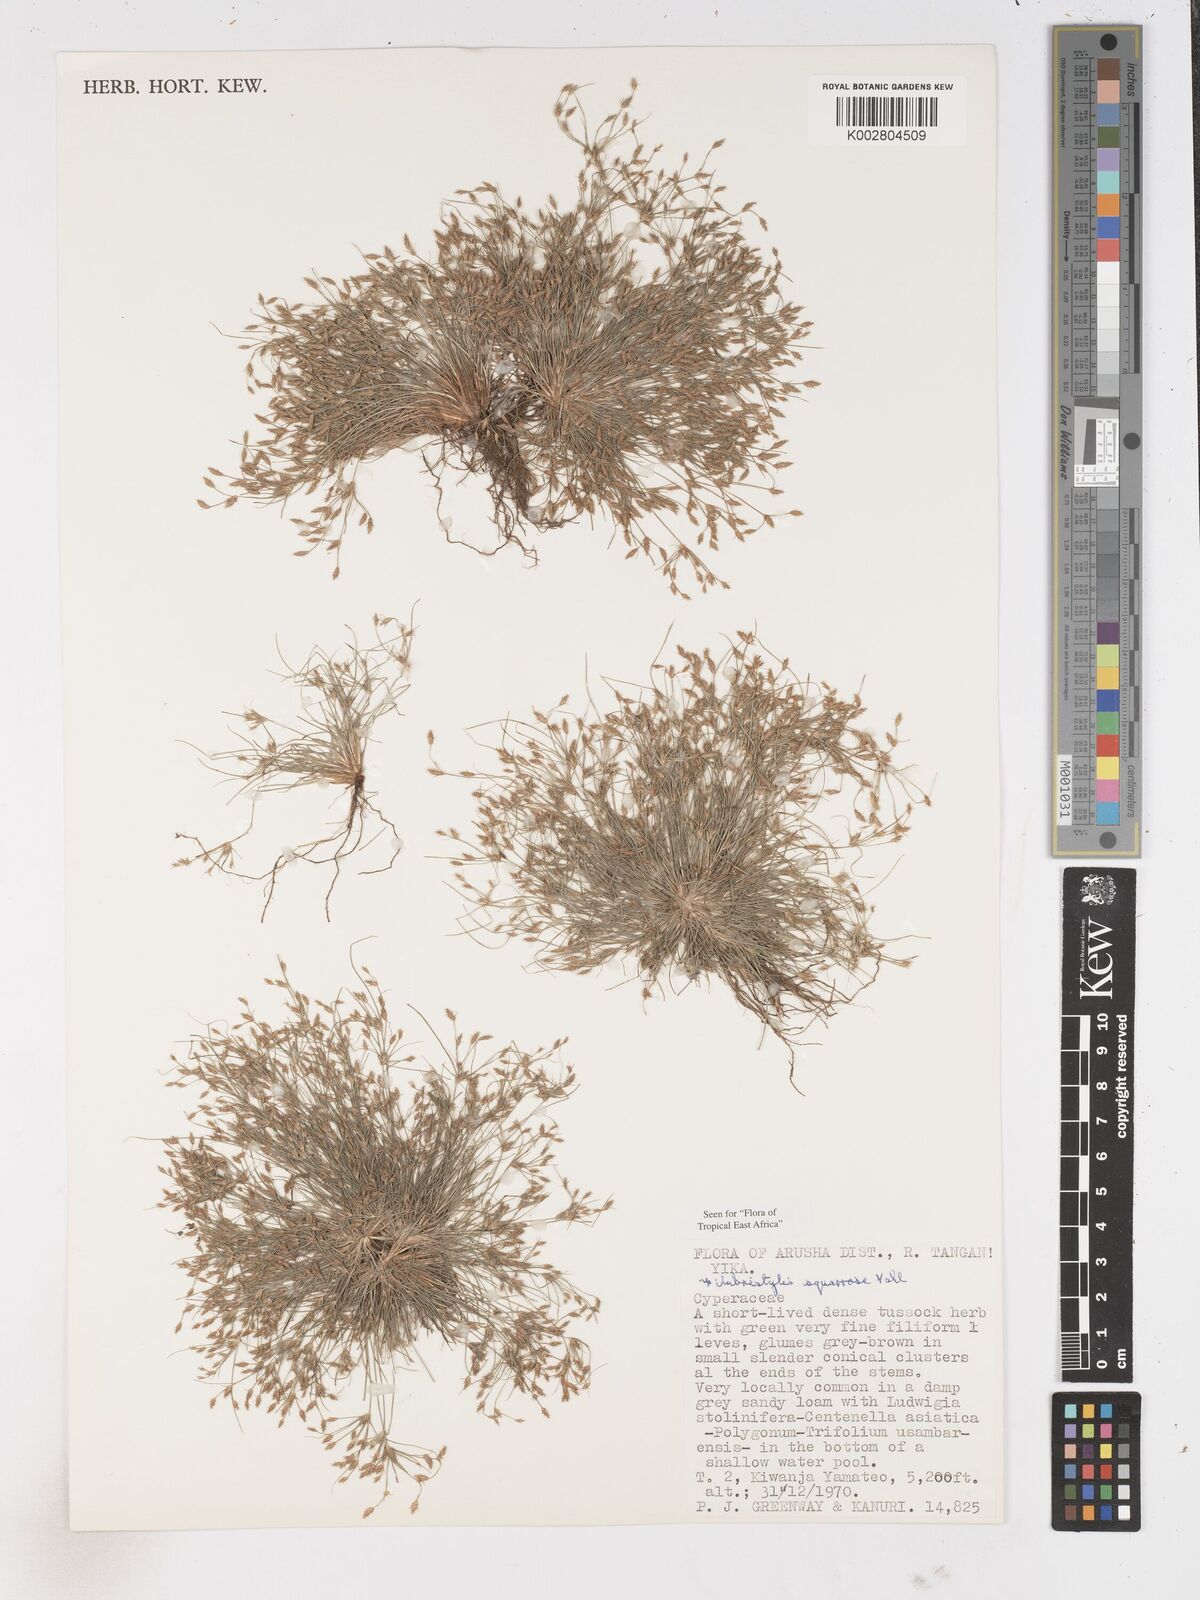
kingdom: Plantae
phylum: Tracheophyta
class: Liliopsida
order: Poales
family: Cyperaceae
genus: Fimbristylis
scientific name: Fimbristylis squarrosa
